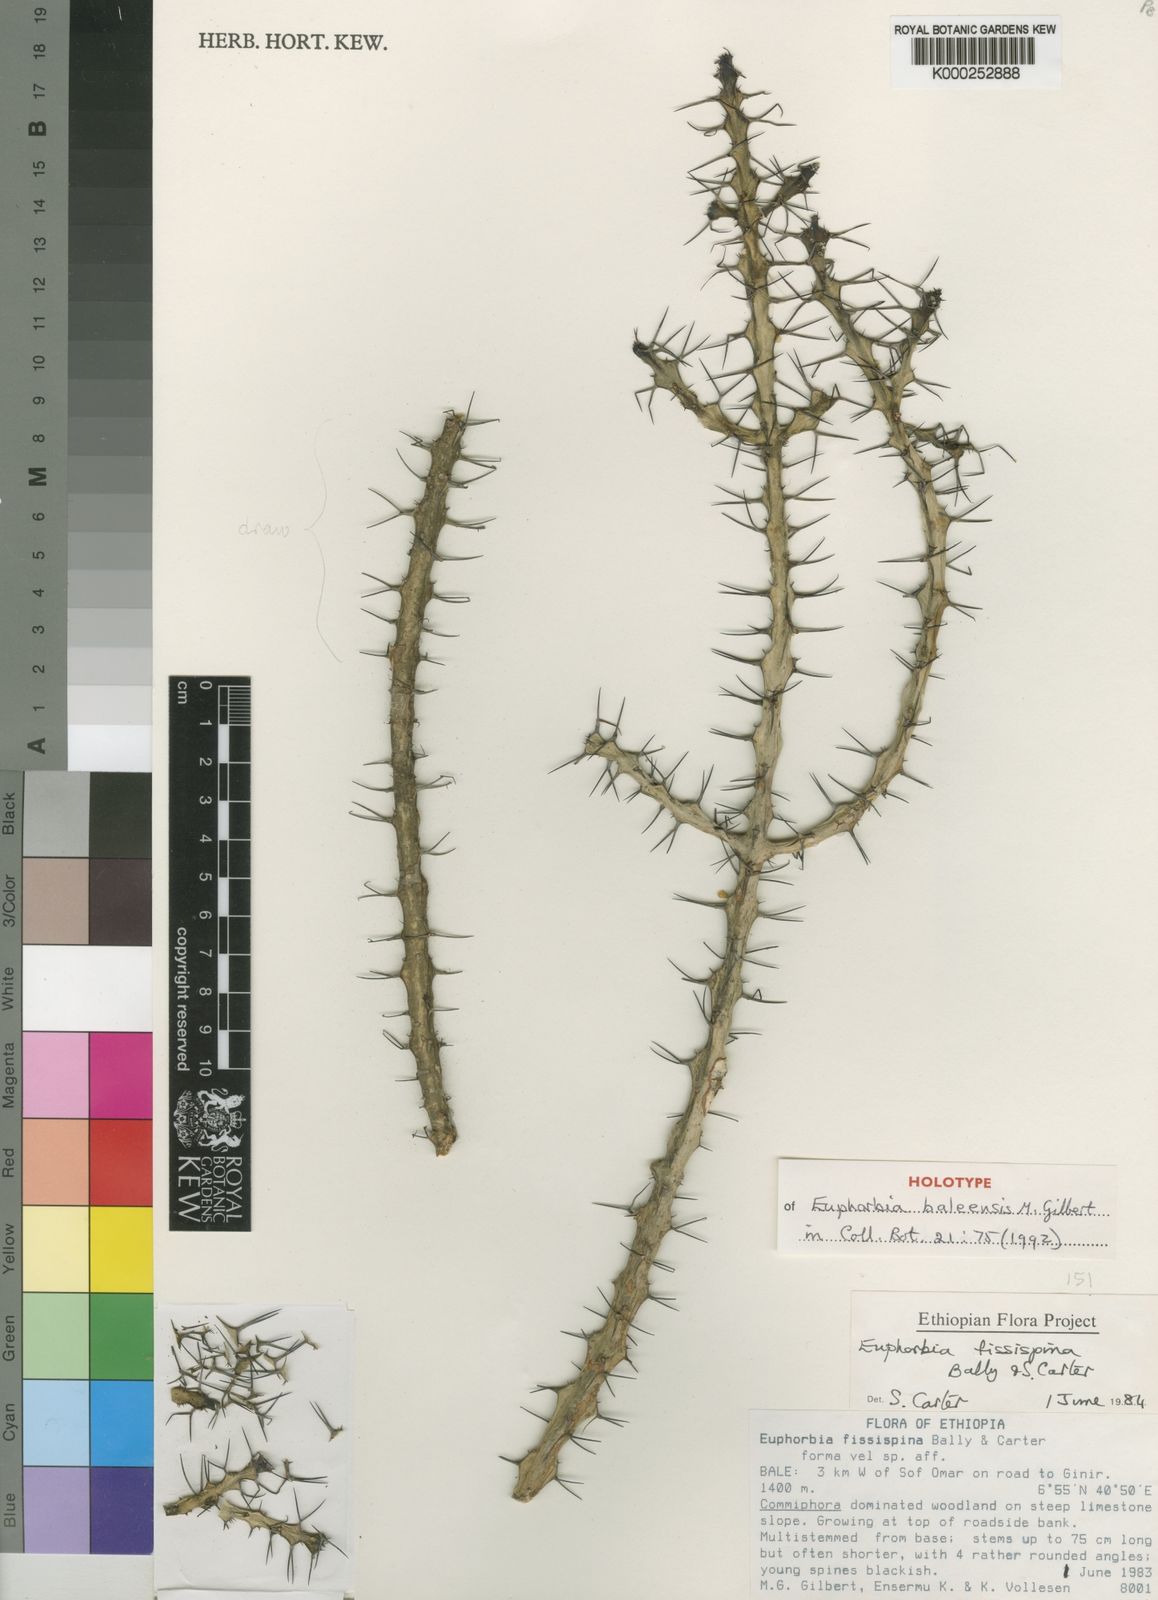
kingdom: Plantae
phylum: Tracheophyta
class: Magnoliopsida
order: Malpighiales
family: Euphorbiaceae
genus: Euphorbia
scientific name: Euphorbia baleensis
